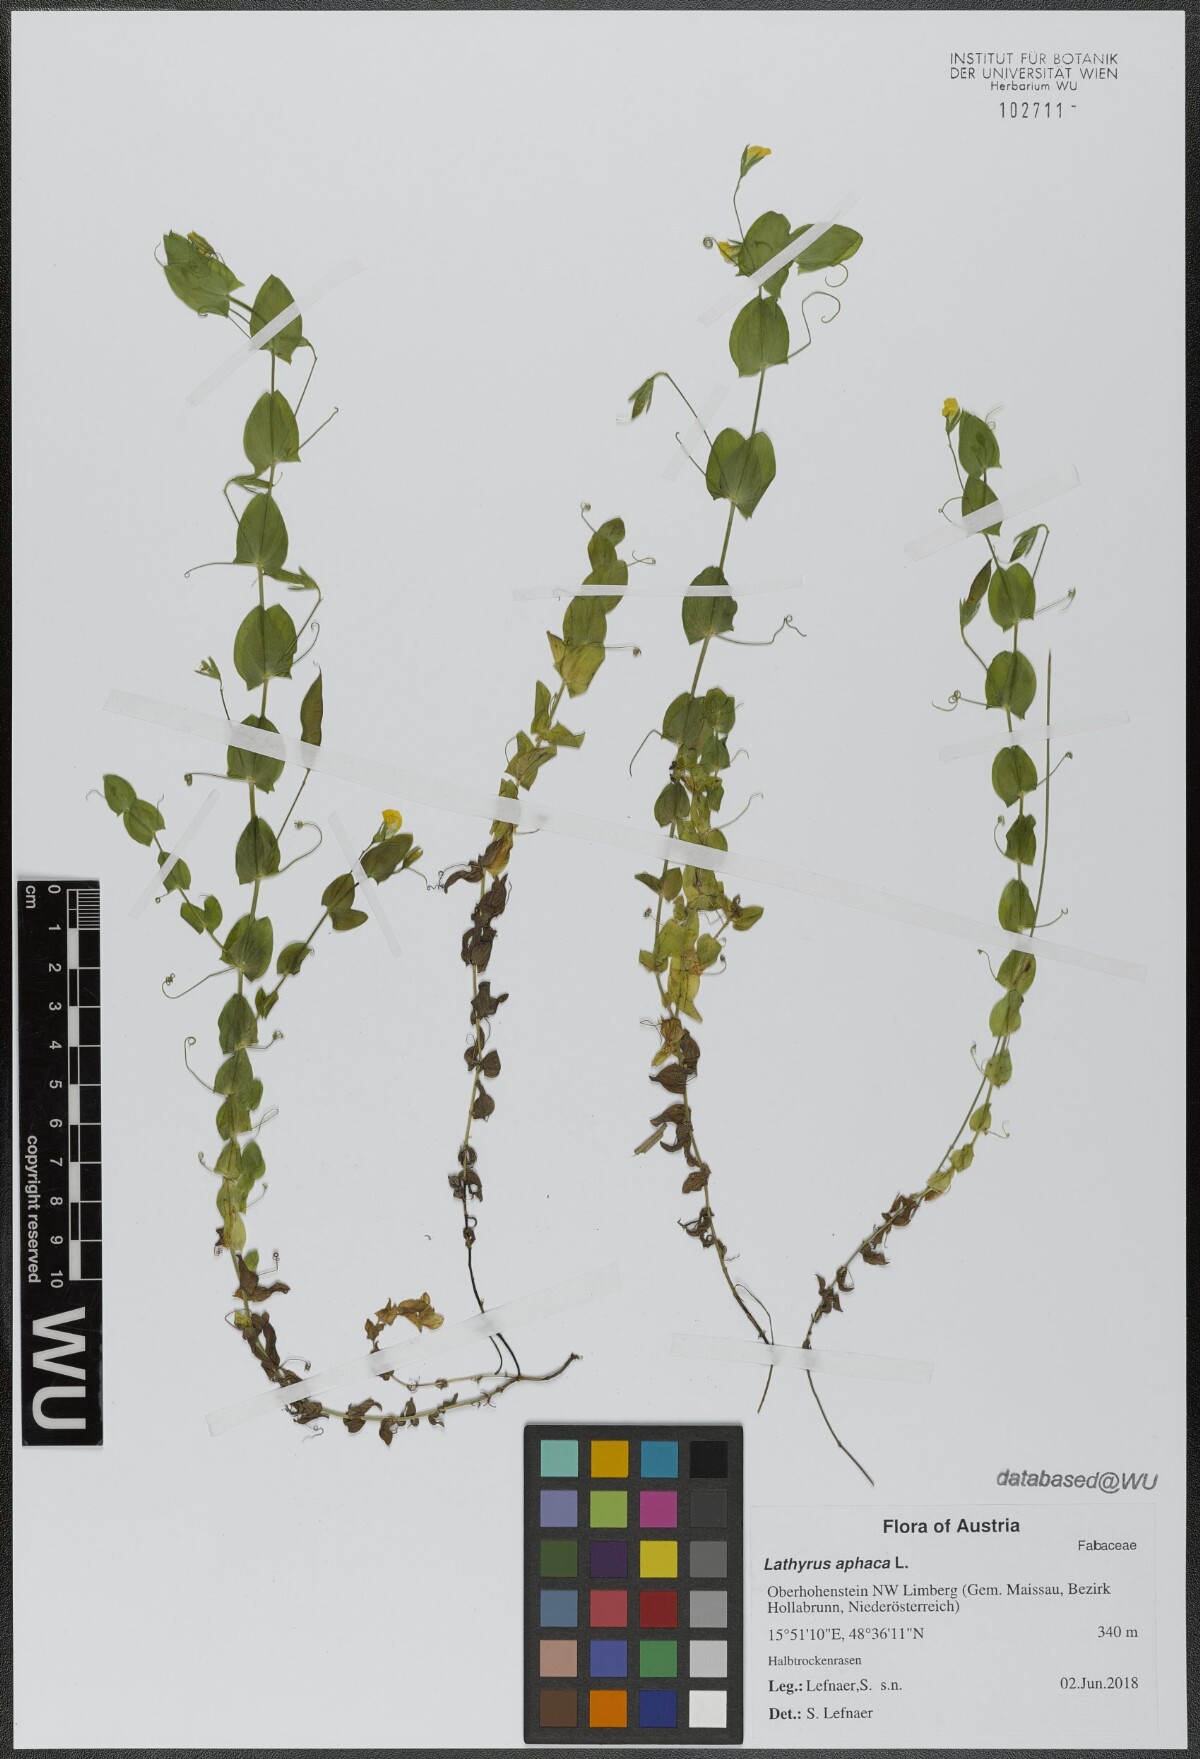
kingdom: Plantae
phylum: Tracheophyta
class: Magnoliopsida
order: Fabales
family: Fabaceae
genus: Lathyrus
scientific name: Lathyrus aphaca
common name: Yellow vetchling
